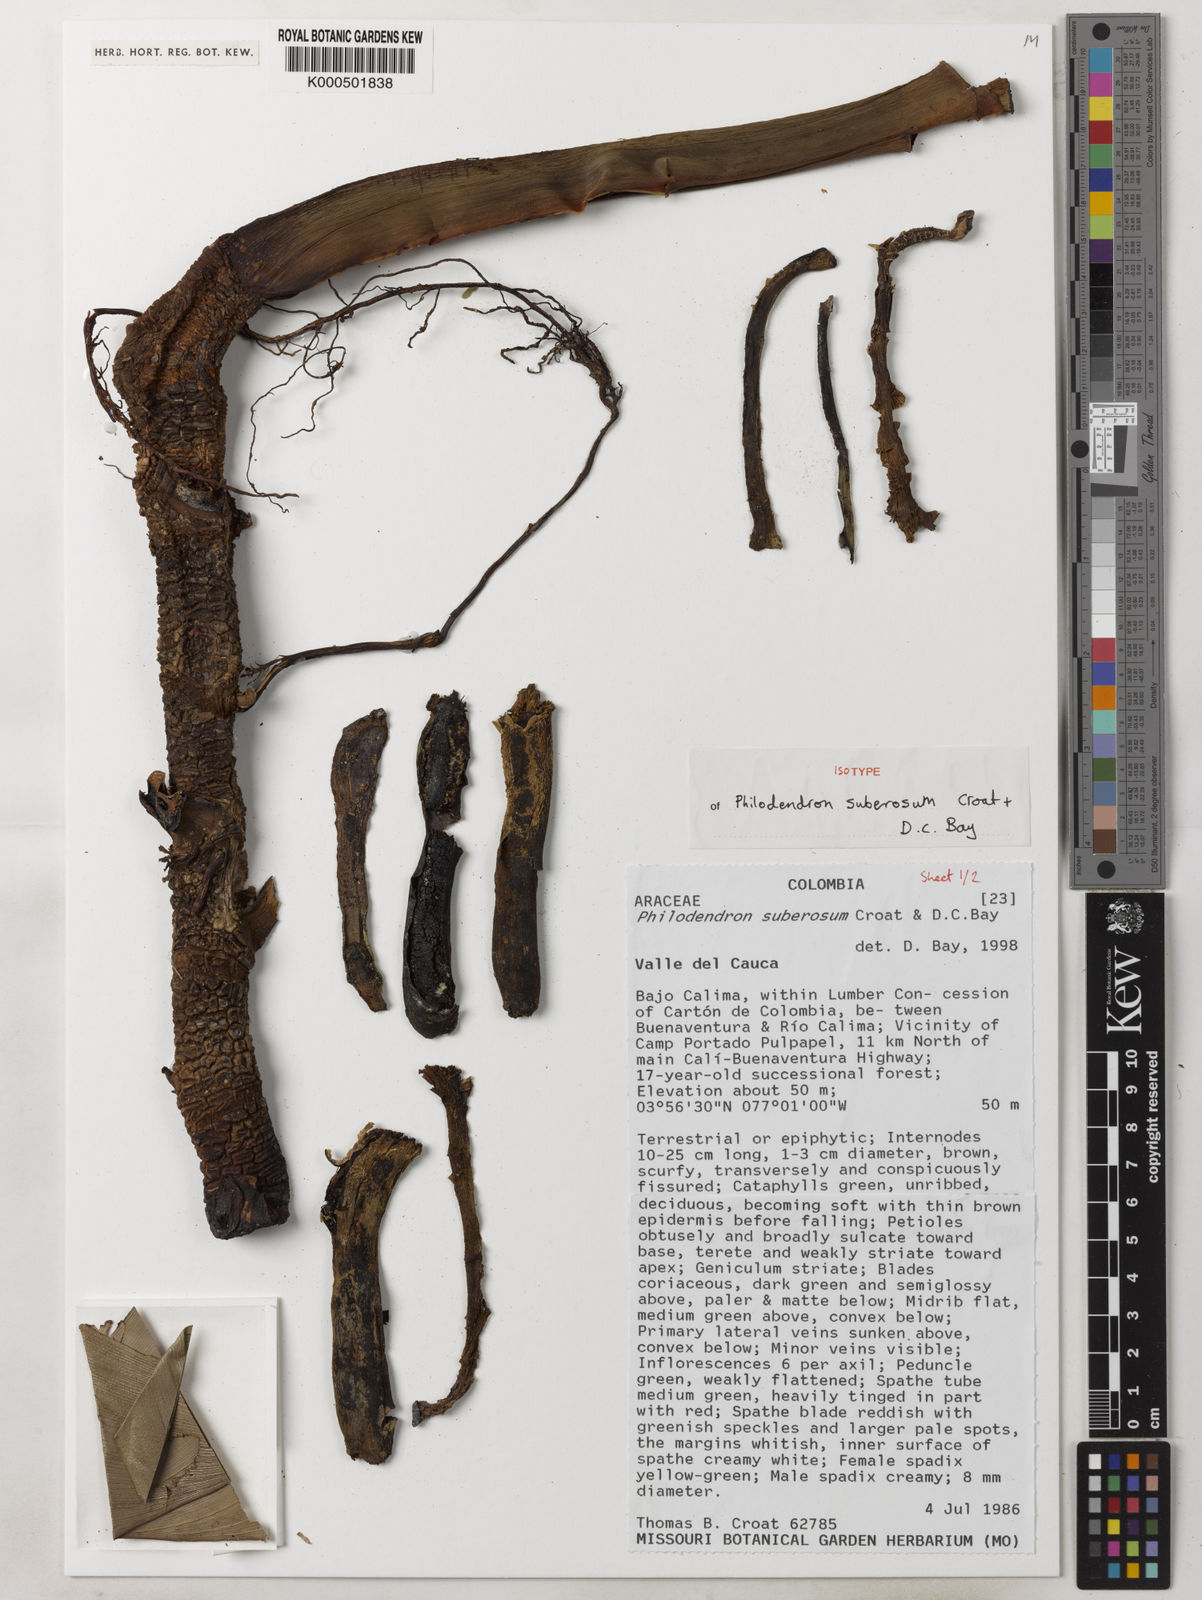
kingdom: Plantae
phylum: Tracheophyta
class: Liliopsida
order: Alismatales
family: Araceae
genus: Philodendron
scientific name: Philodendron suberosum
